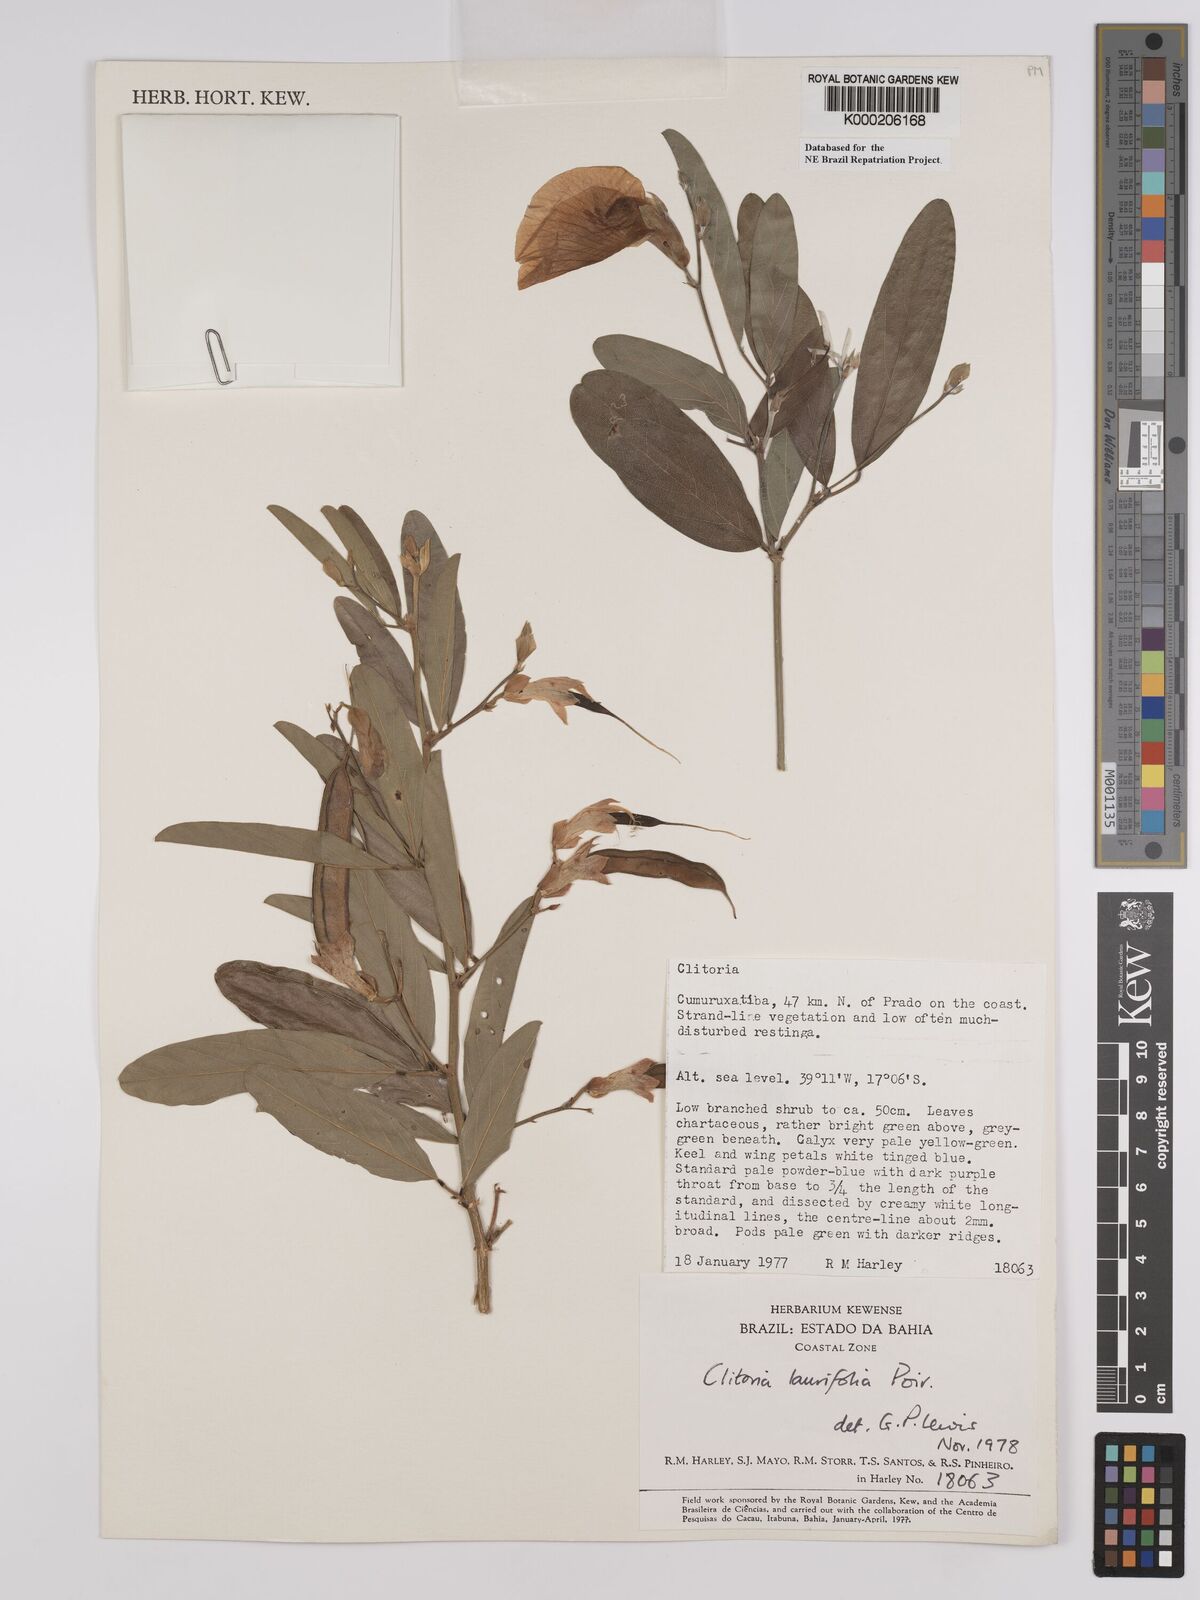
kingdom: Plantae
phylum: Tracheophyta
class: Magnoliopsida
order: Fabales
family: Fabaceae
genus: Clitoria
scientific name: Clitoria laurifolia
